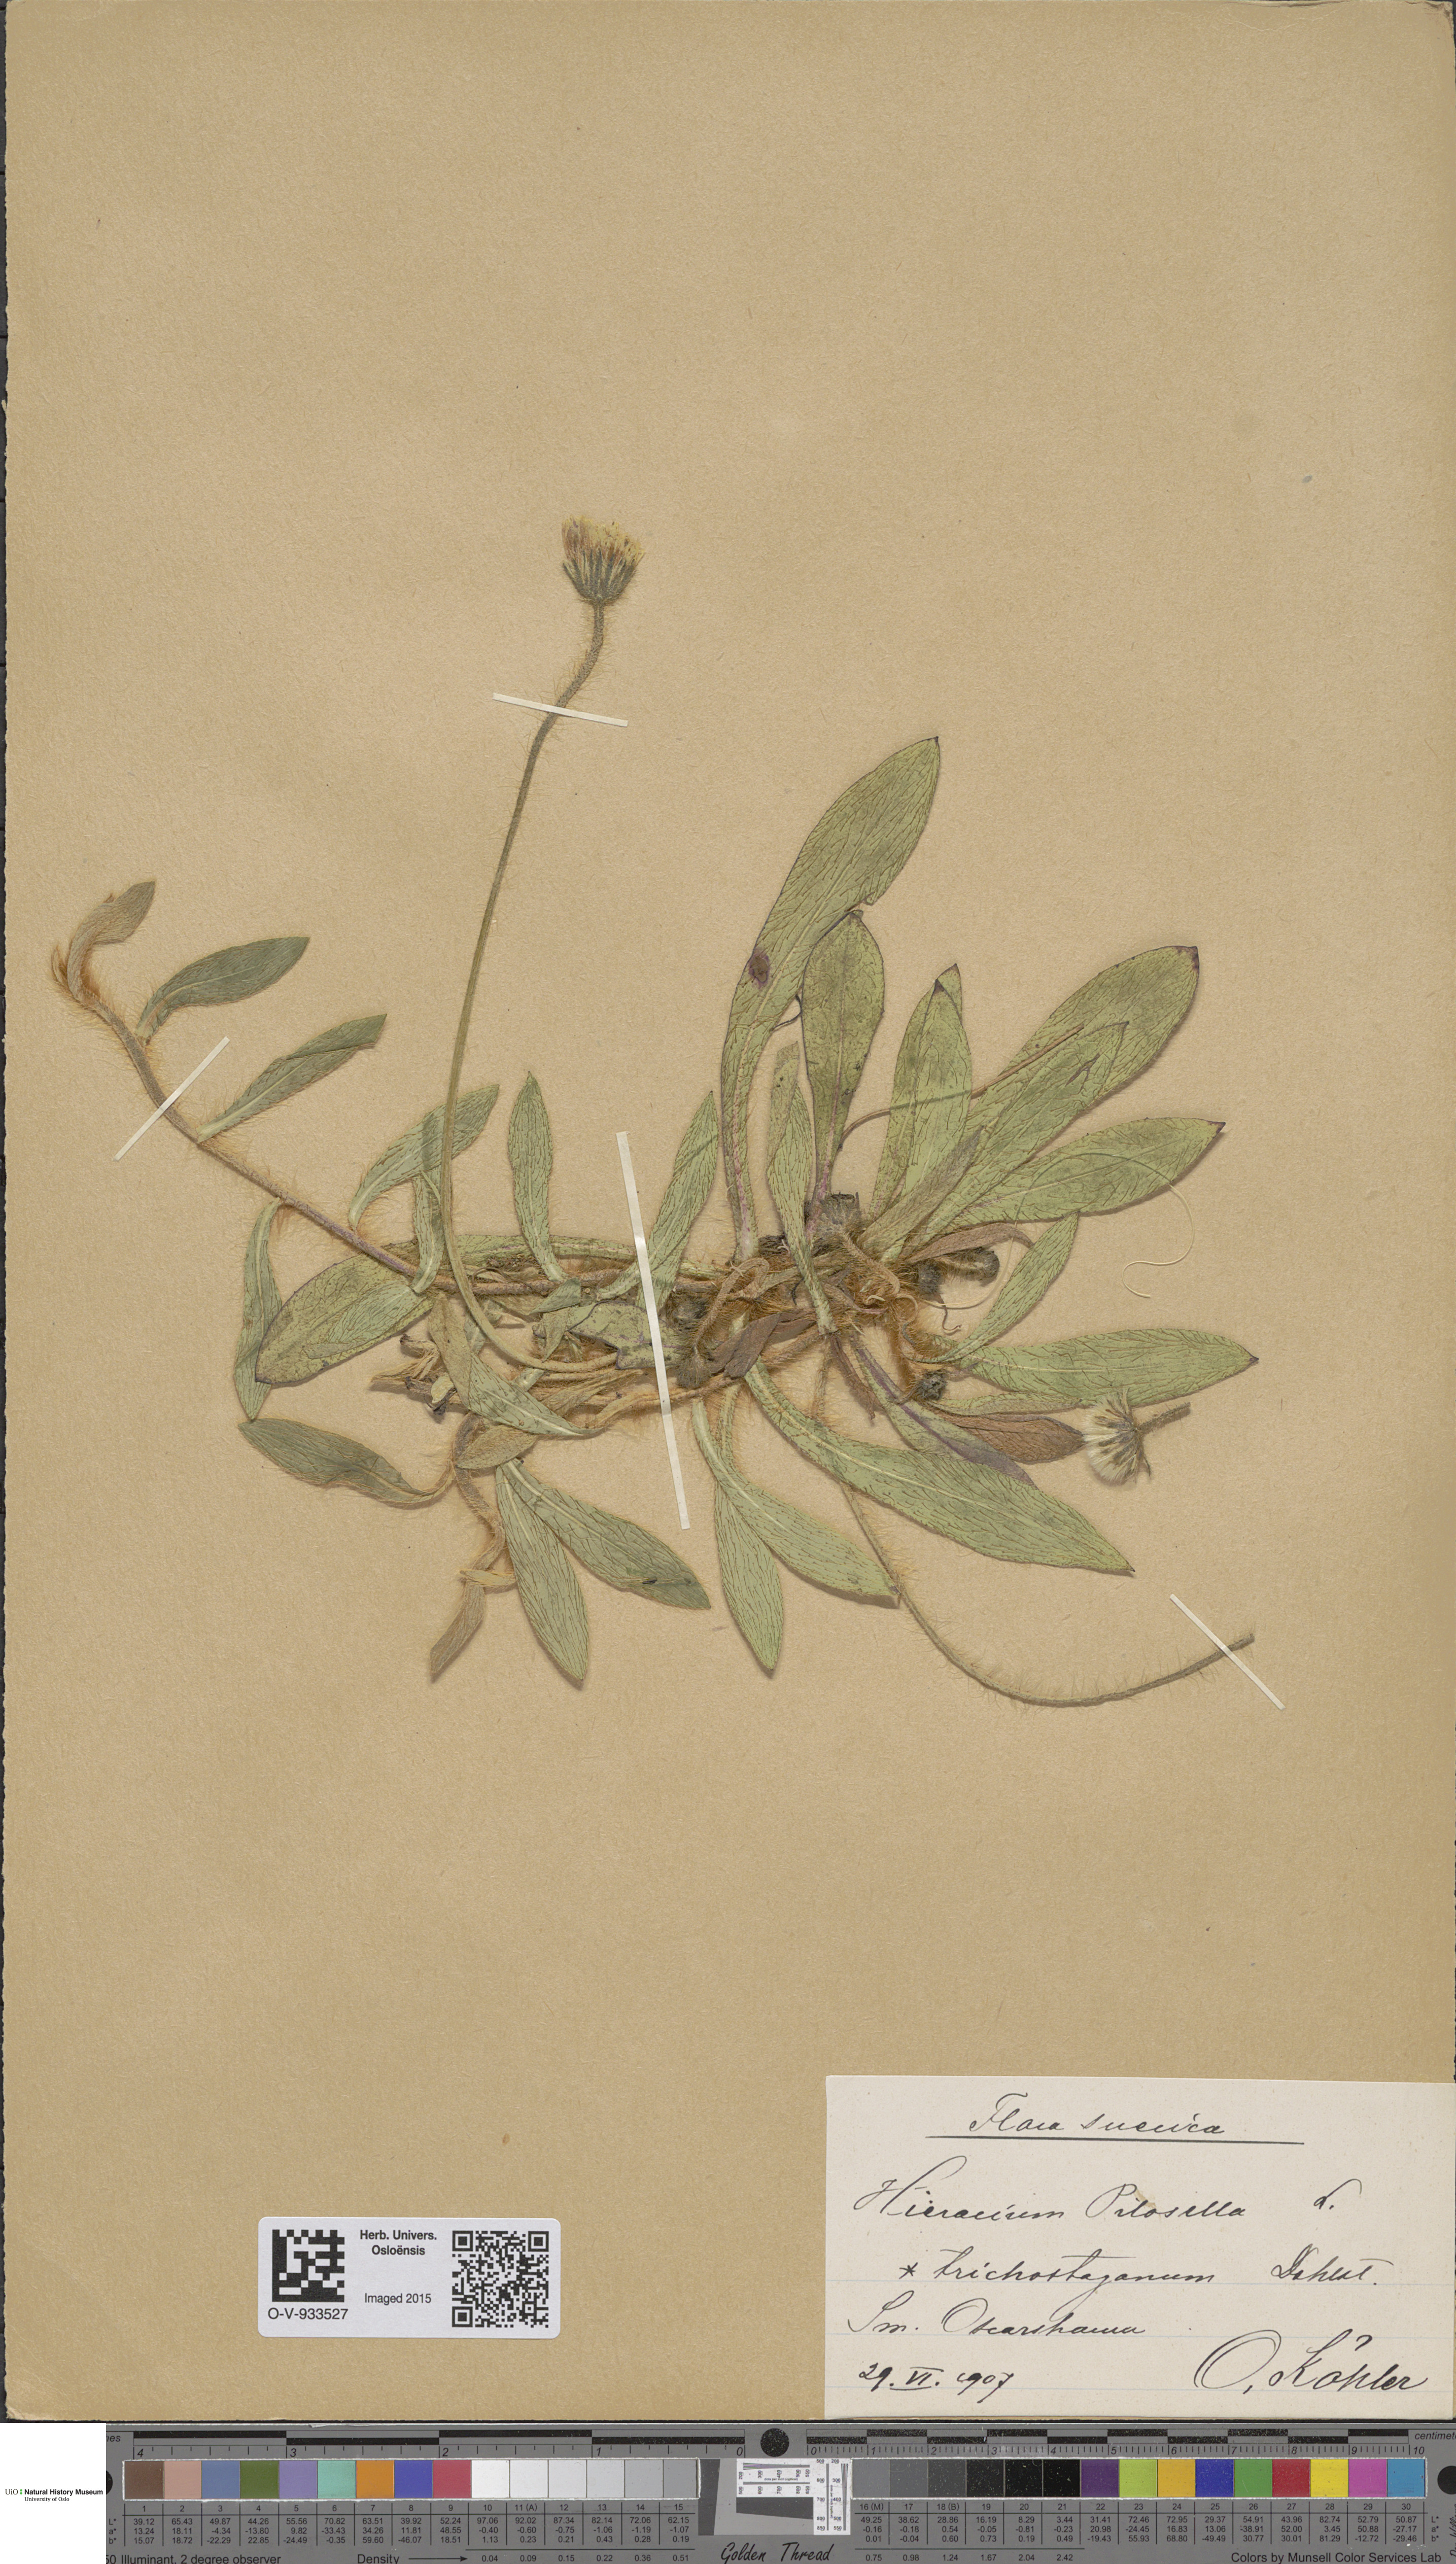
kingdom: Plantae
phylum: Tracheophyta
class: Magnoliopsida
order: Asterales
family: Asteraceae
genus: Pilosella
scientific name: Pilosella officinarum
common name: Mouse-ear hawkweed
